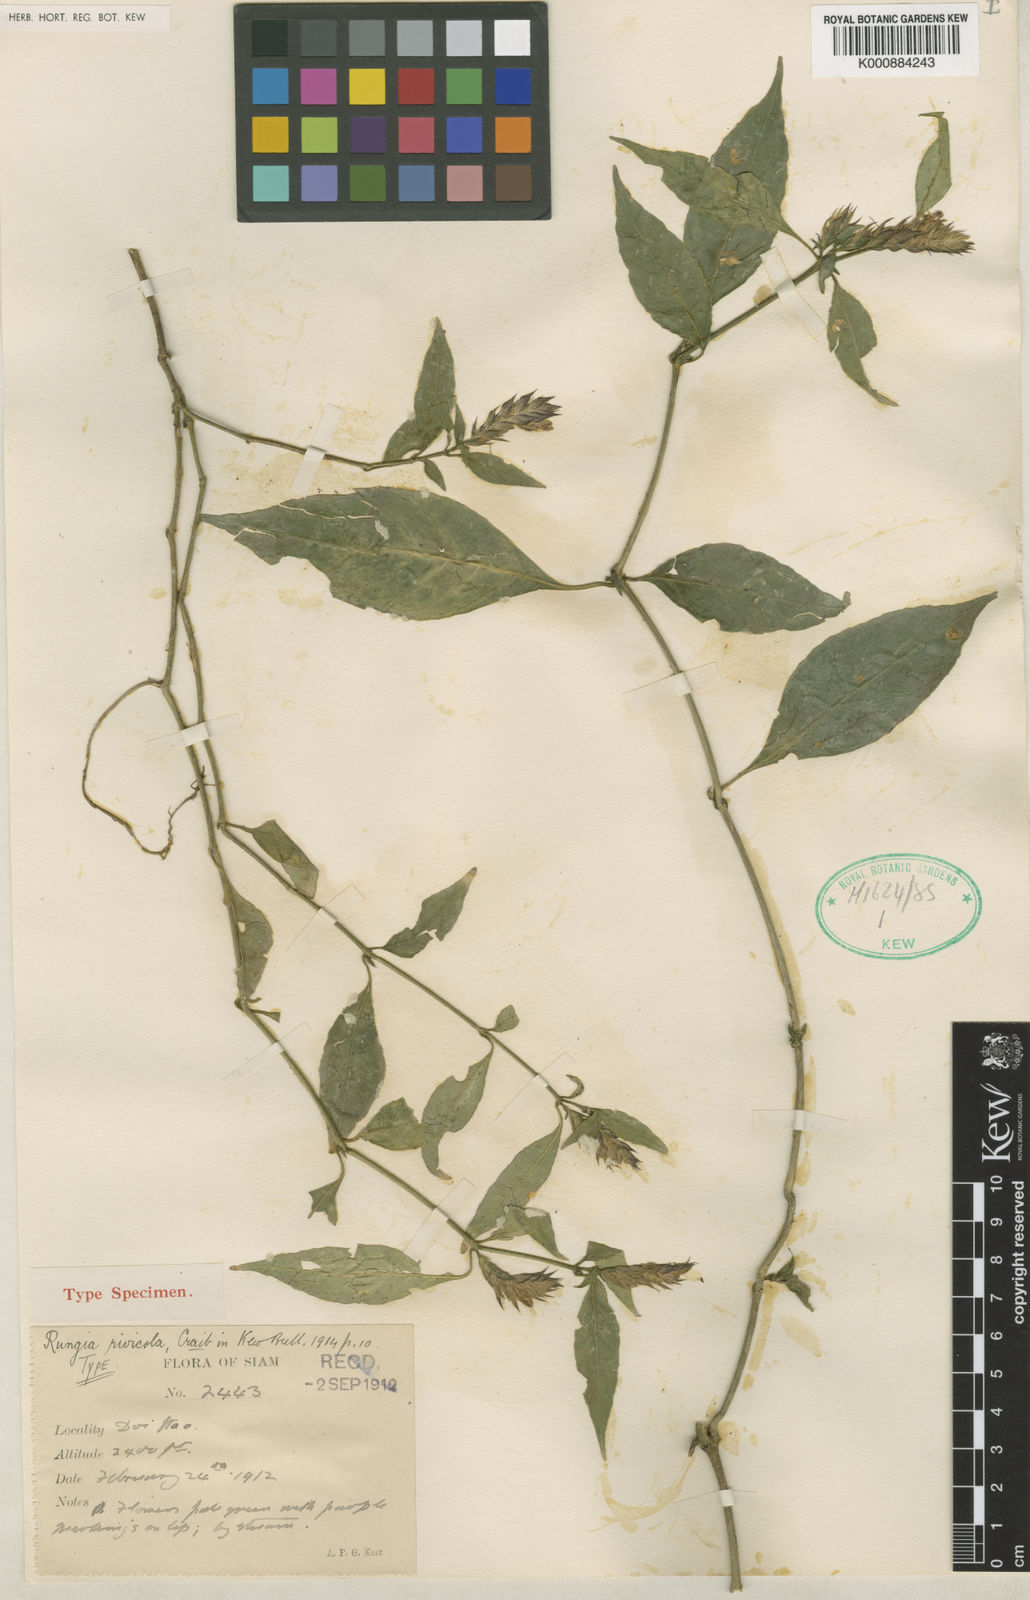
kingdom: Plantae
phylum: Tracheophyta
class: Magnoliopsida
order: Lamiales
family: Acanthaceae
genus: Justicia
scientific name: Justicia
